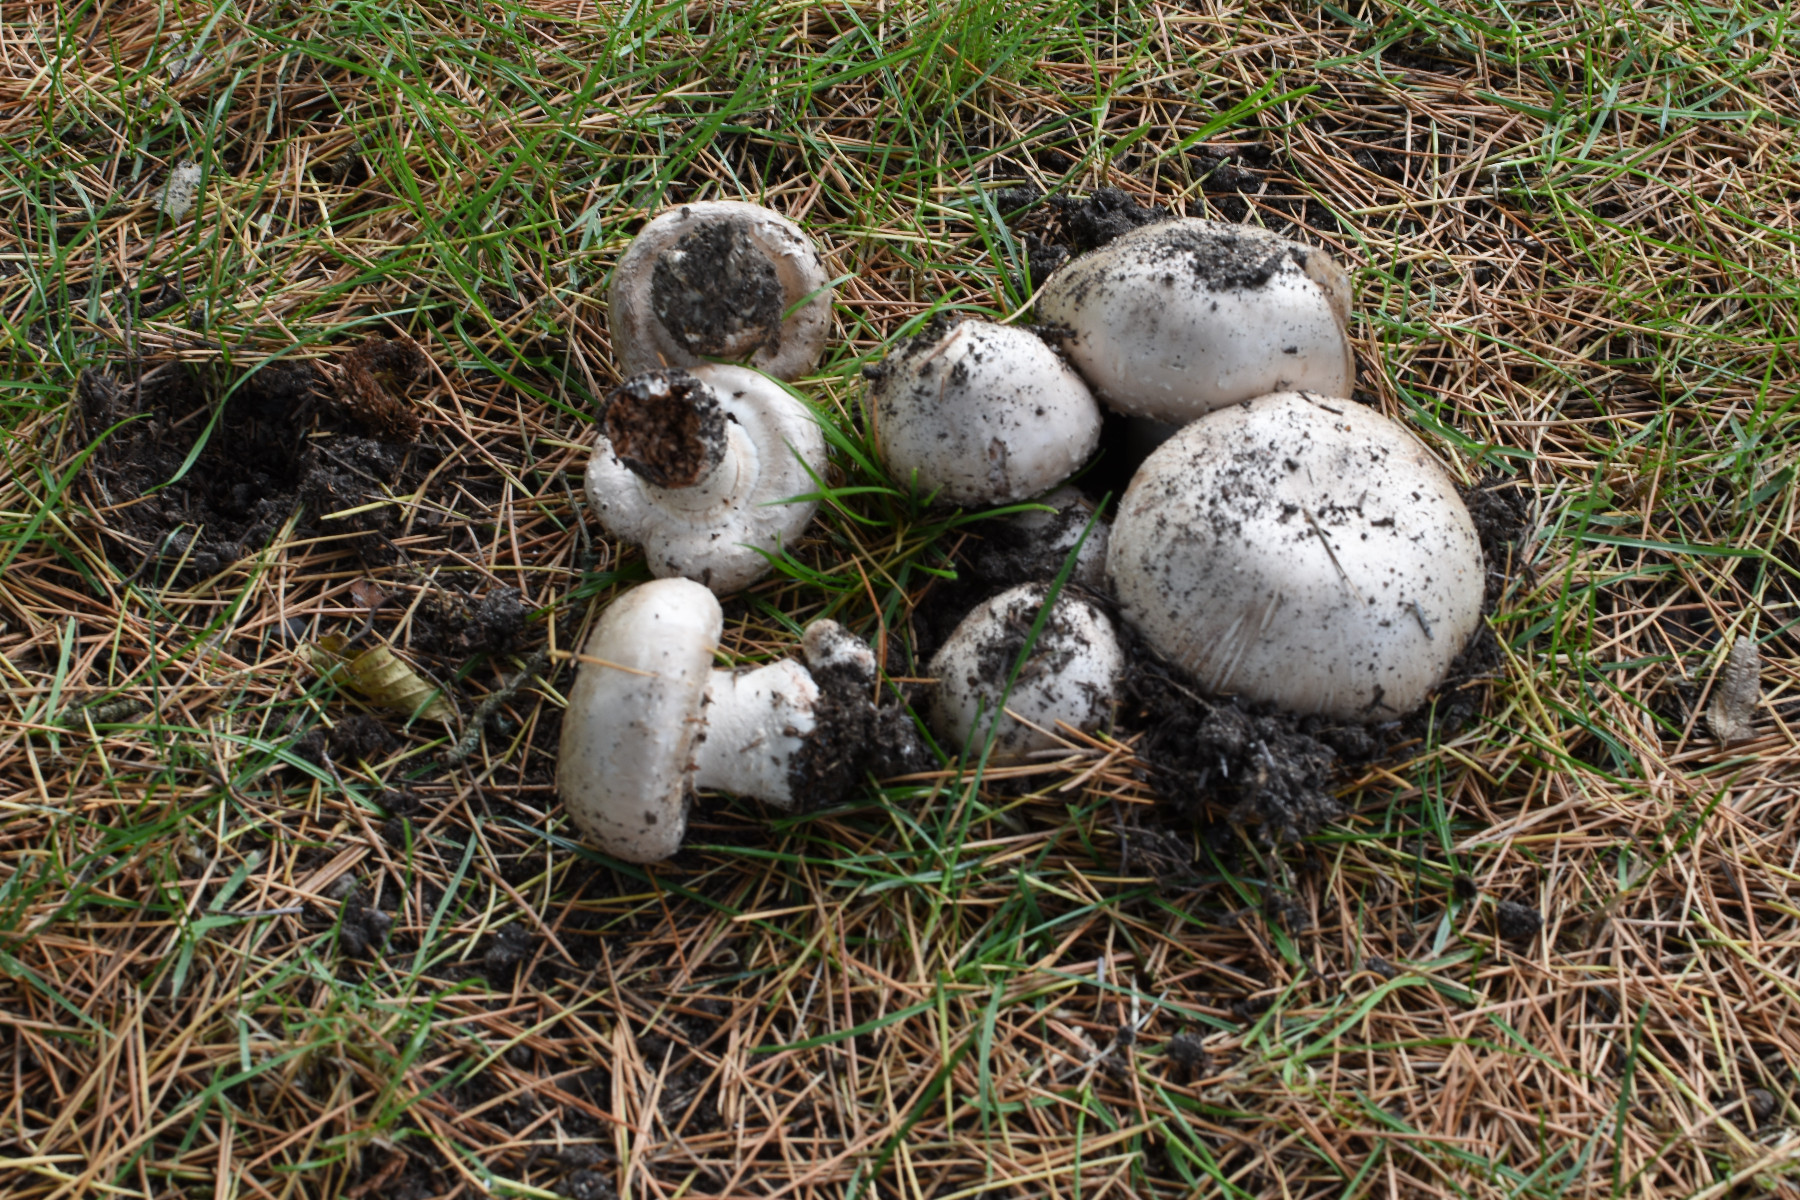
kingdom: Fungi
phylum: Basidiomycota
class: Agaricomycetes
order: Agaricales
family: Agaricaceae
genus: Agaricus
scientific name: Agaricus bitorquis
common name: vej-champignon
